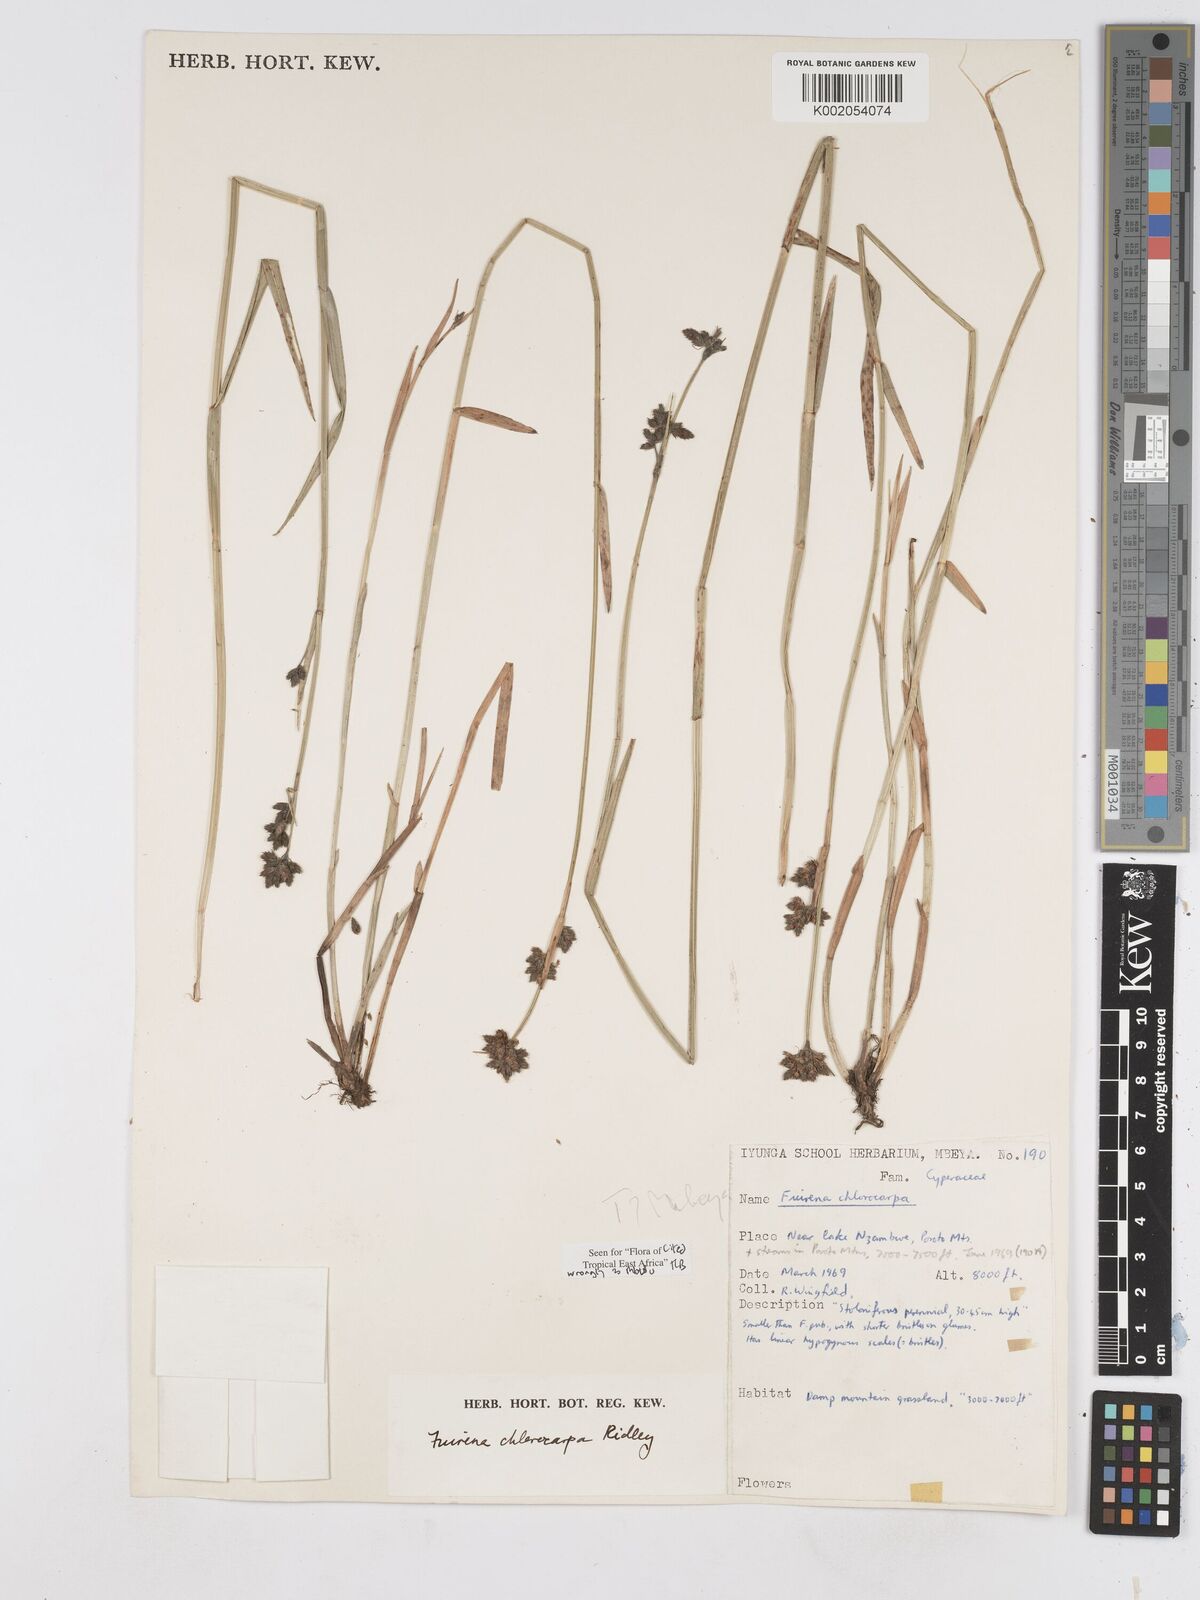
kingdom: Plantae
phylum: Tracheophyta
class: Liliopsida
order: Poales
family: Cyperaceae
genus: Fuirena
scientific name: Fuirena stricta
